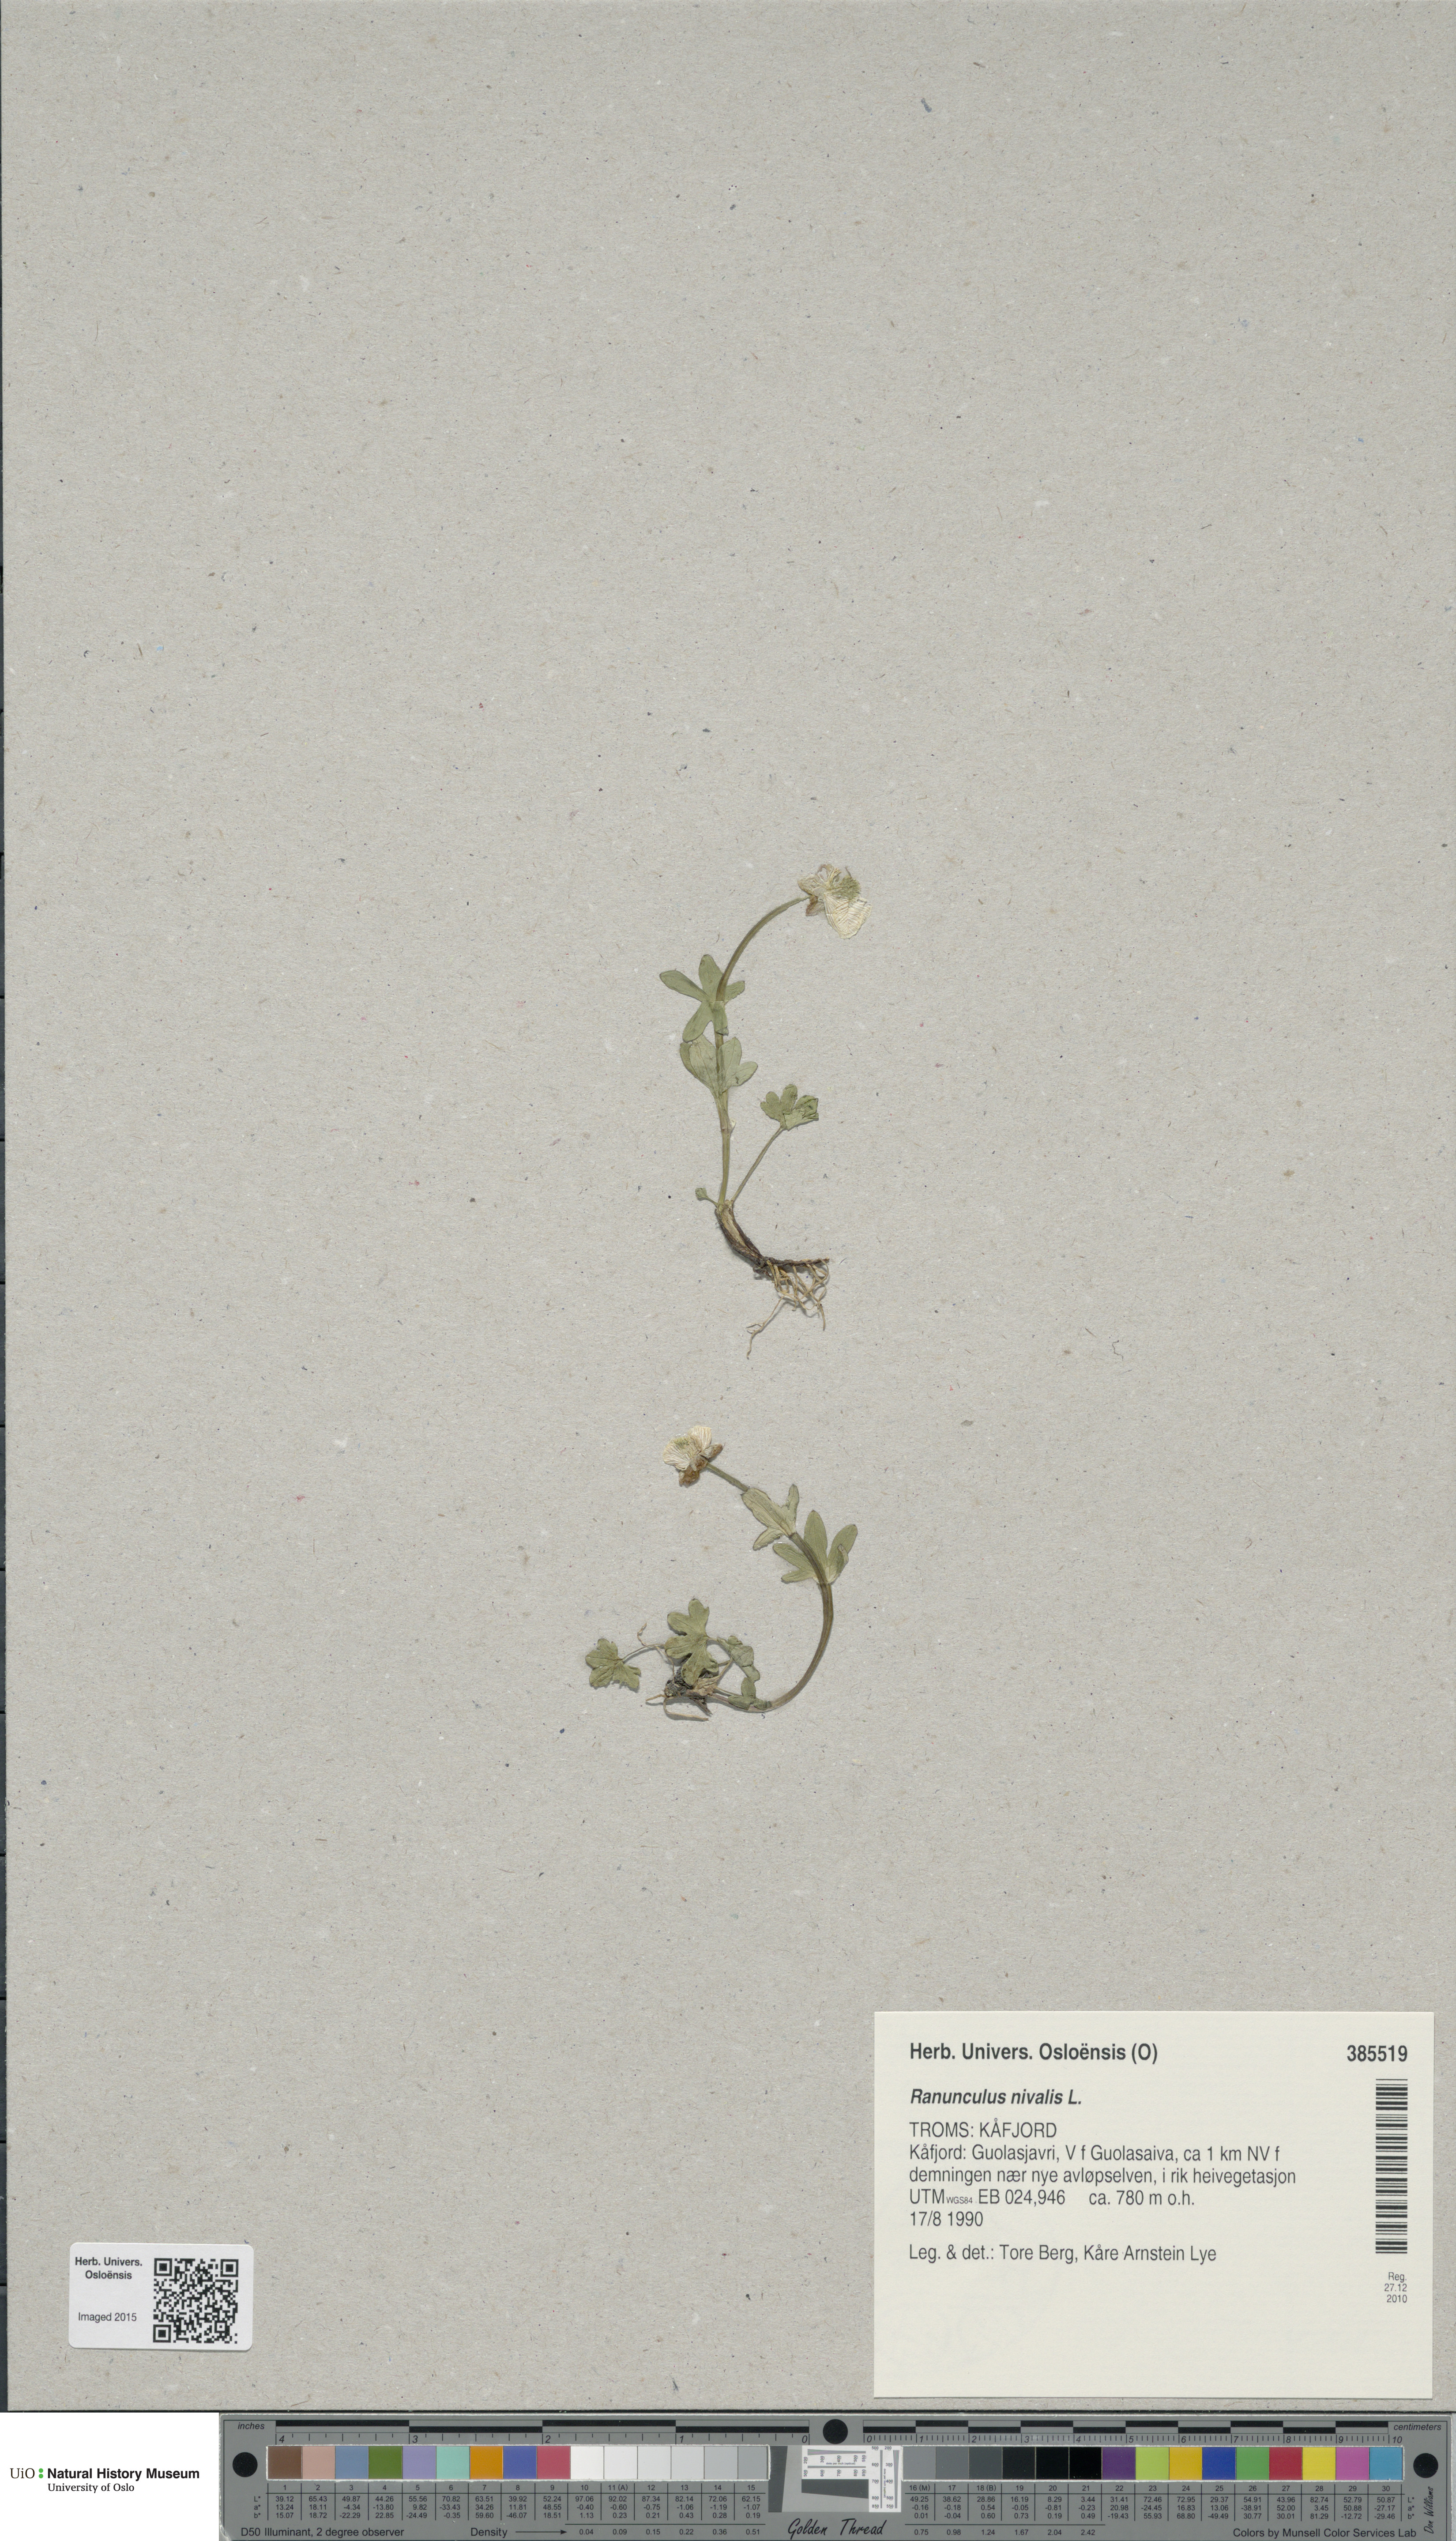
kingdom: Plantae
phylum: Tracheophyta
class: Magnoliopsida
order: Ranunculales
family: Ranunculaceae
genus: Ranunculus
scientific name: Ranunculus nivalis
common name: Snow buttercup
